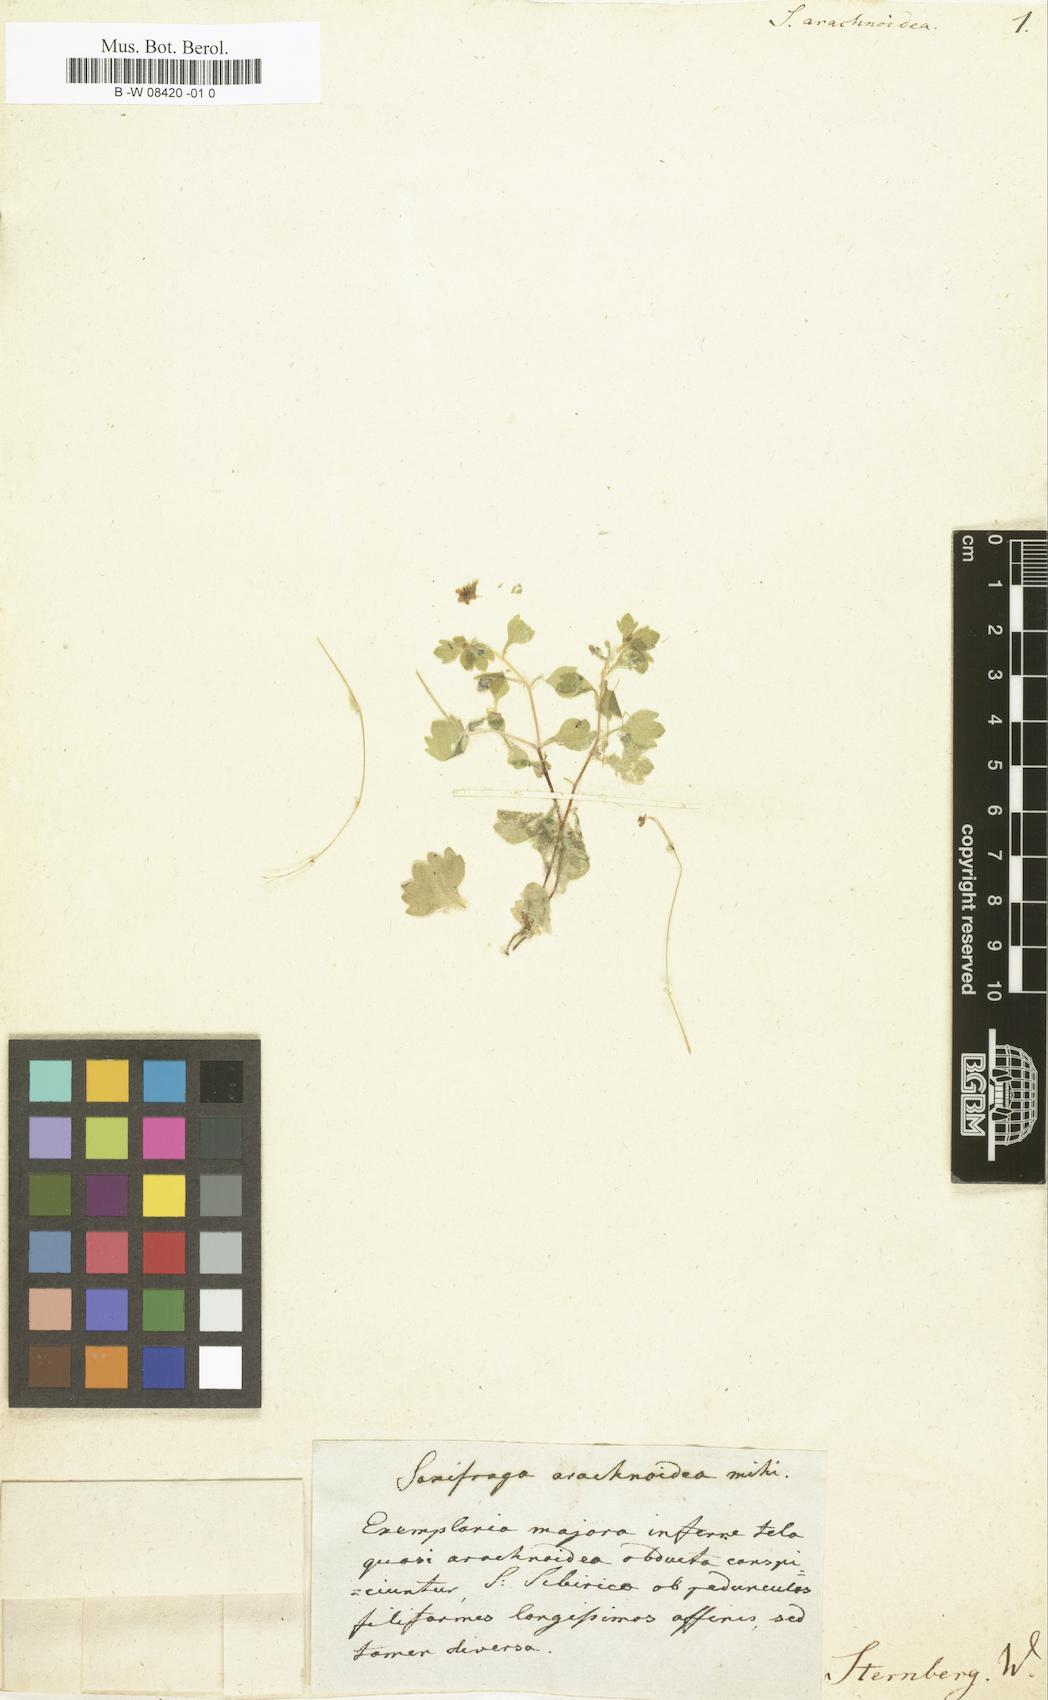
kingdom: Plantae
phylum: Tracheophyta
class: Magnoliopsida
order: Saxifragales
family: Saxifragaceae
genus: Saxifraga
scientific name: Saxifraga arachnoidea
